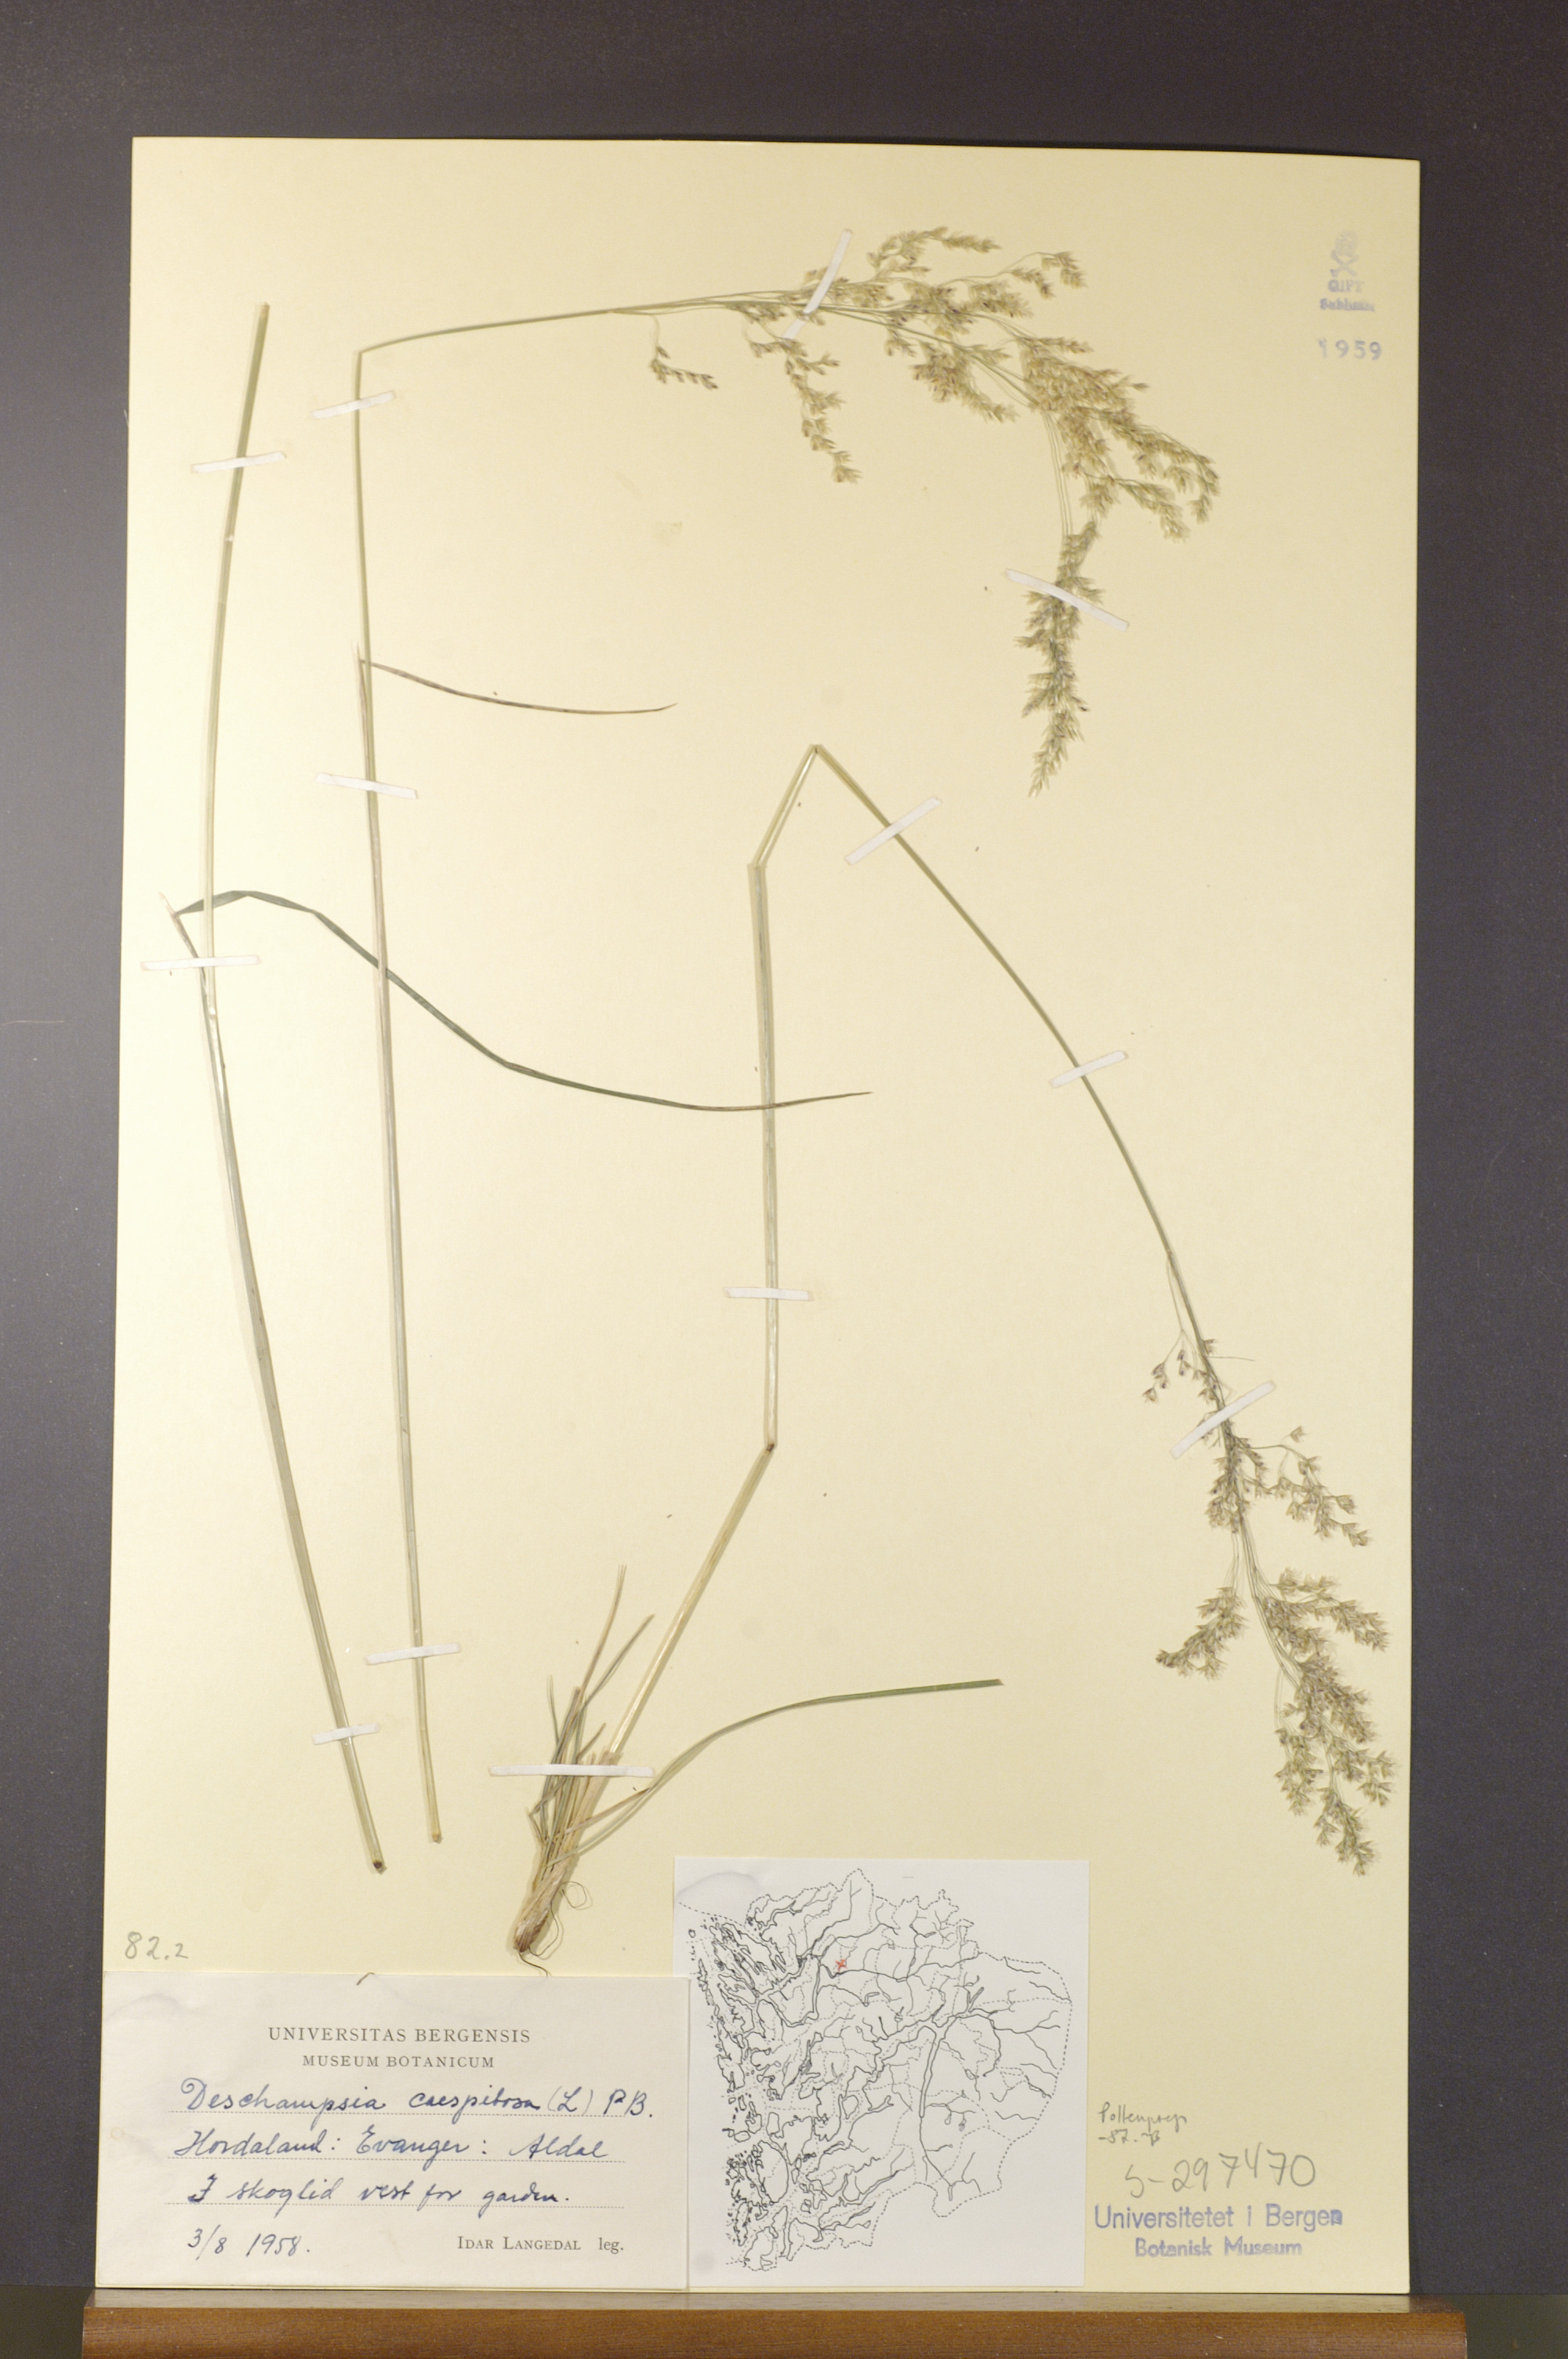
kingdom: Plantae
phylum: Tracheophyta
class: Liliopsida
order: Poales
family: Poaceae
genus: Deschampsia
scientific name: Deschampsia cespitosa
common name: Tufted hair-grass
